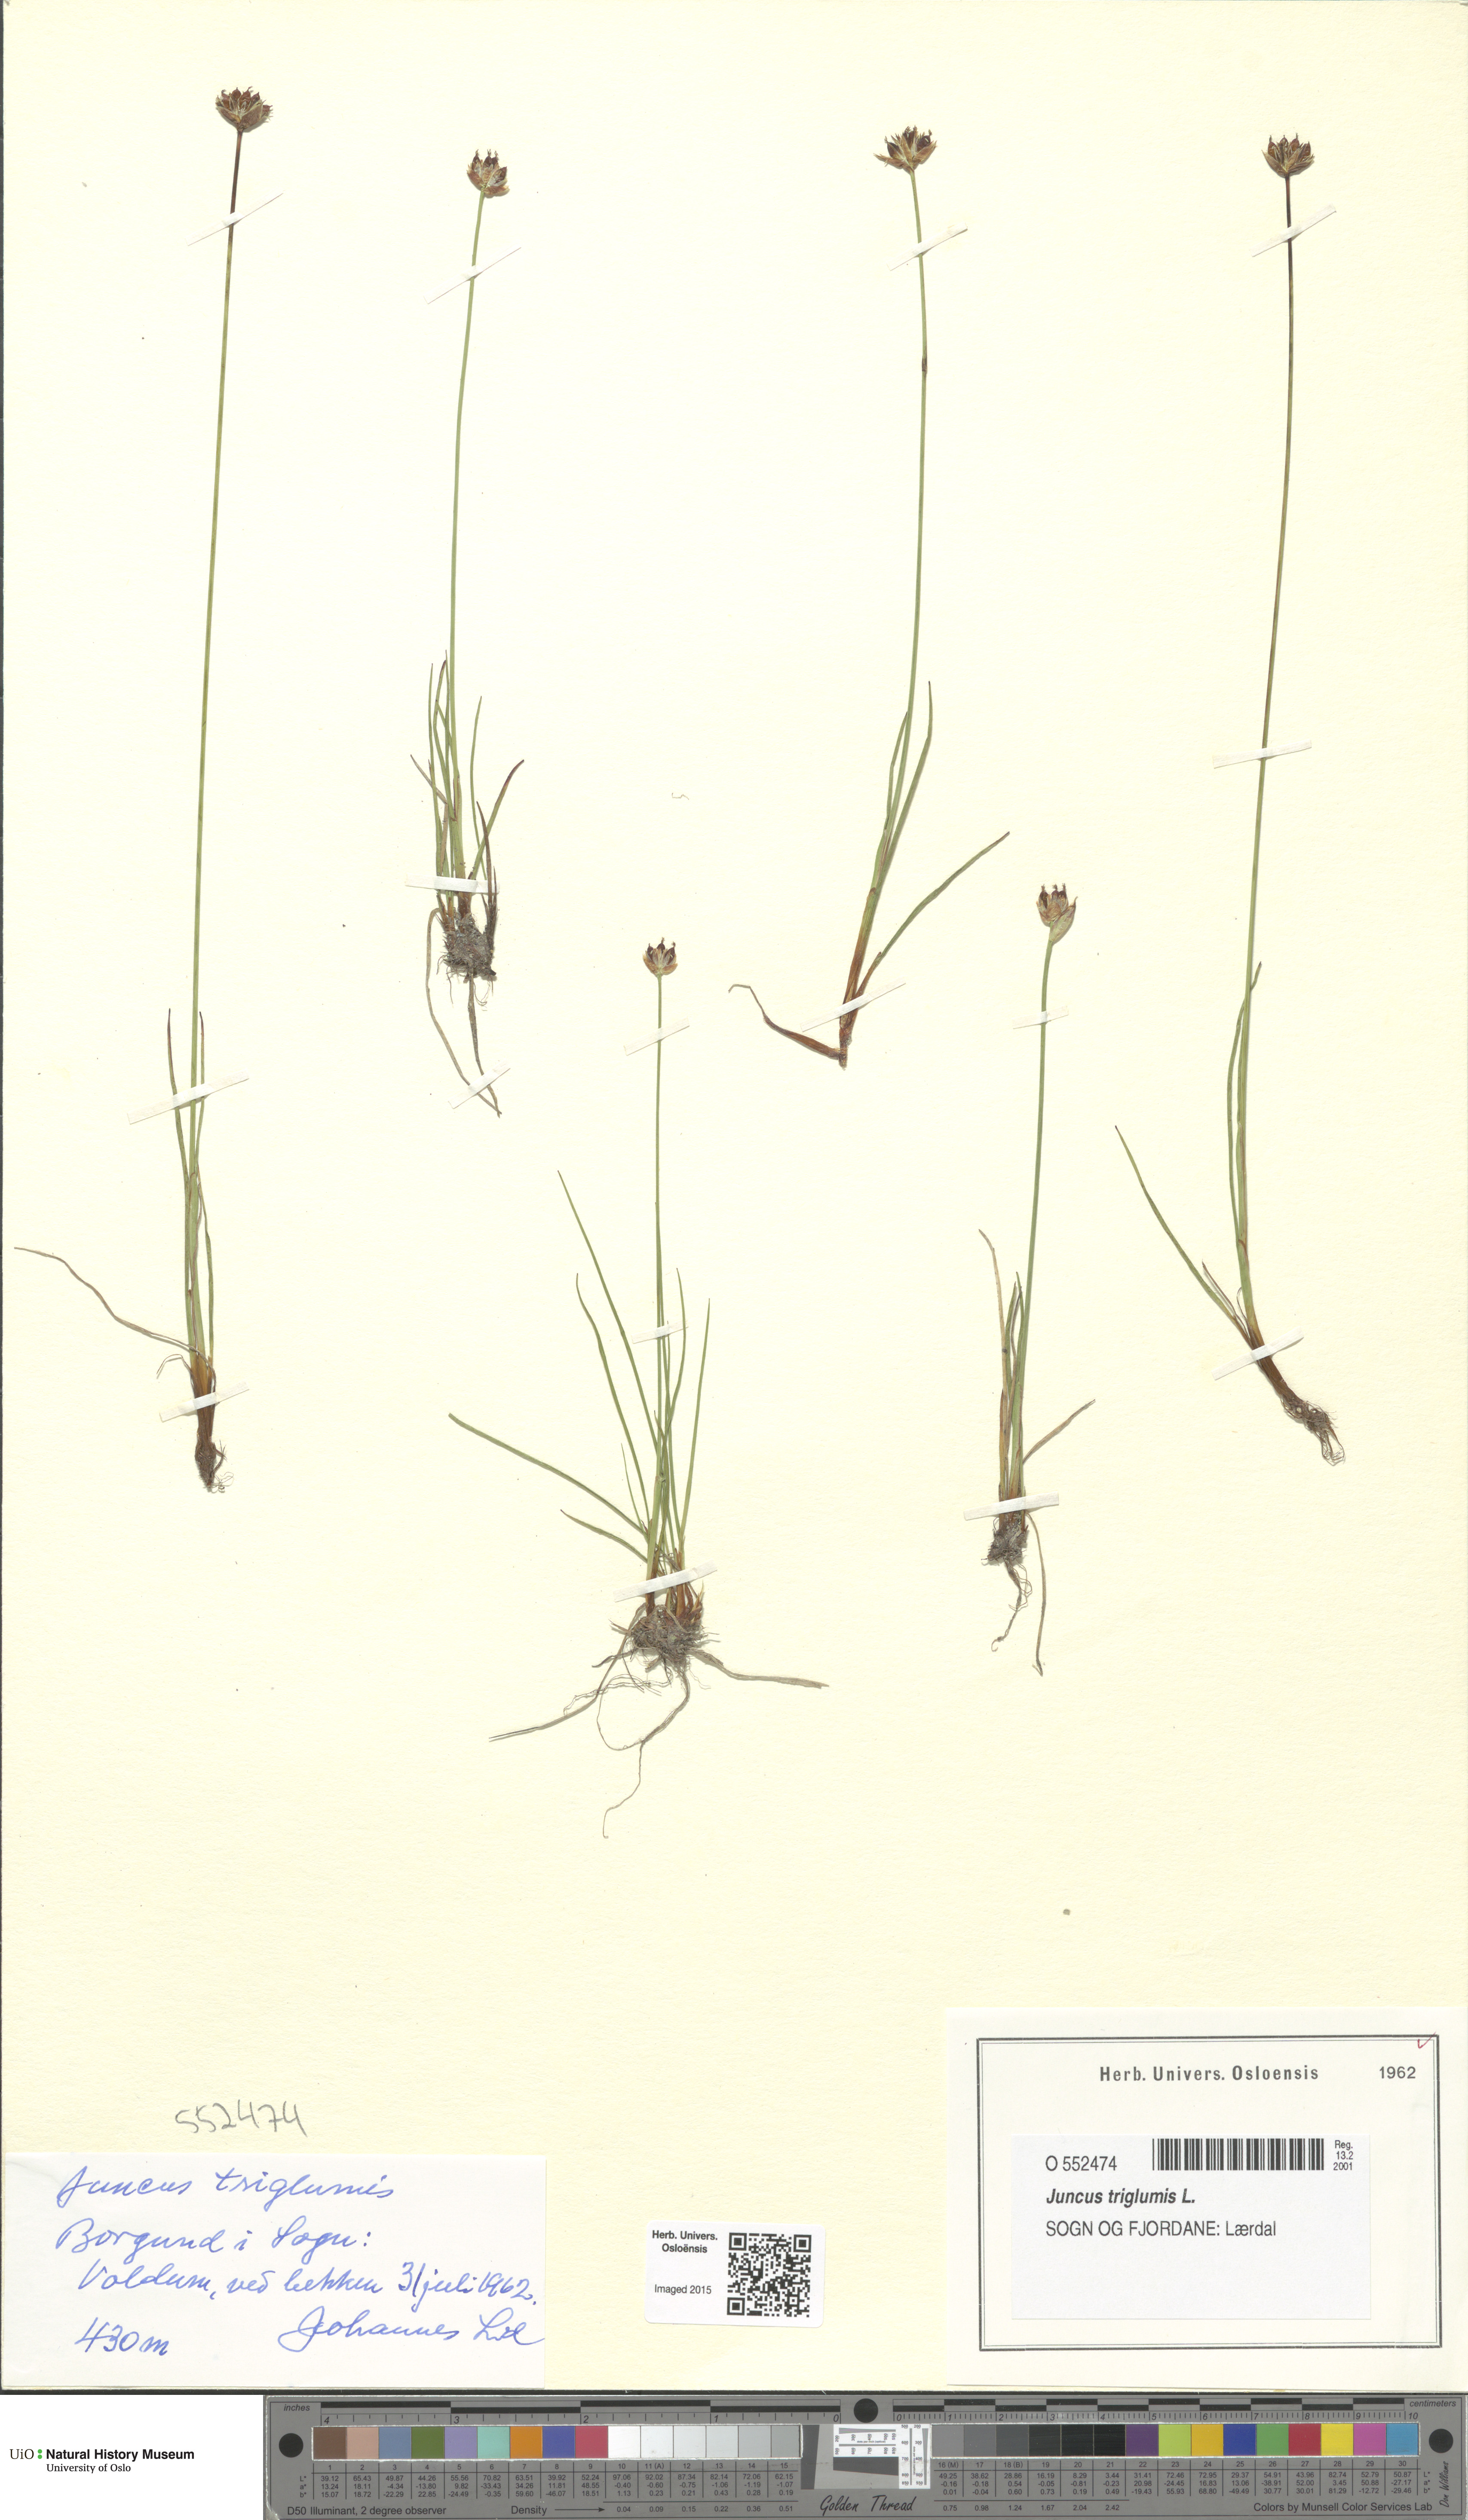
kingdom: Plantae
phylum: Tracheophyta
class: Liliopsida
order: Poales
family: Juncaceae
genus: Juncus
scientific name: Juncus triglumis
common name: Three-flowered rush
